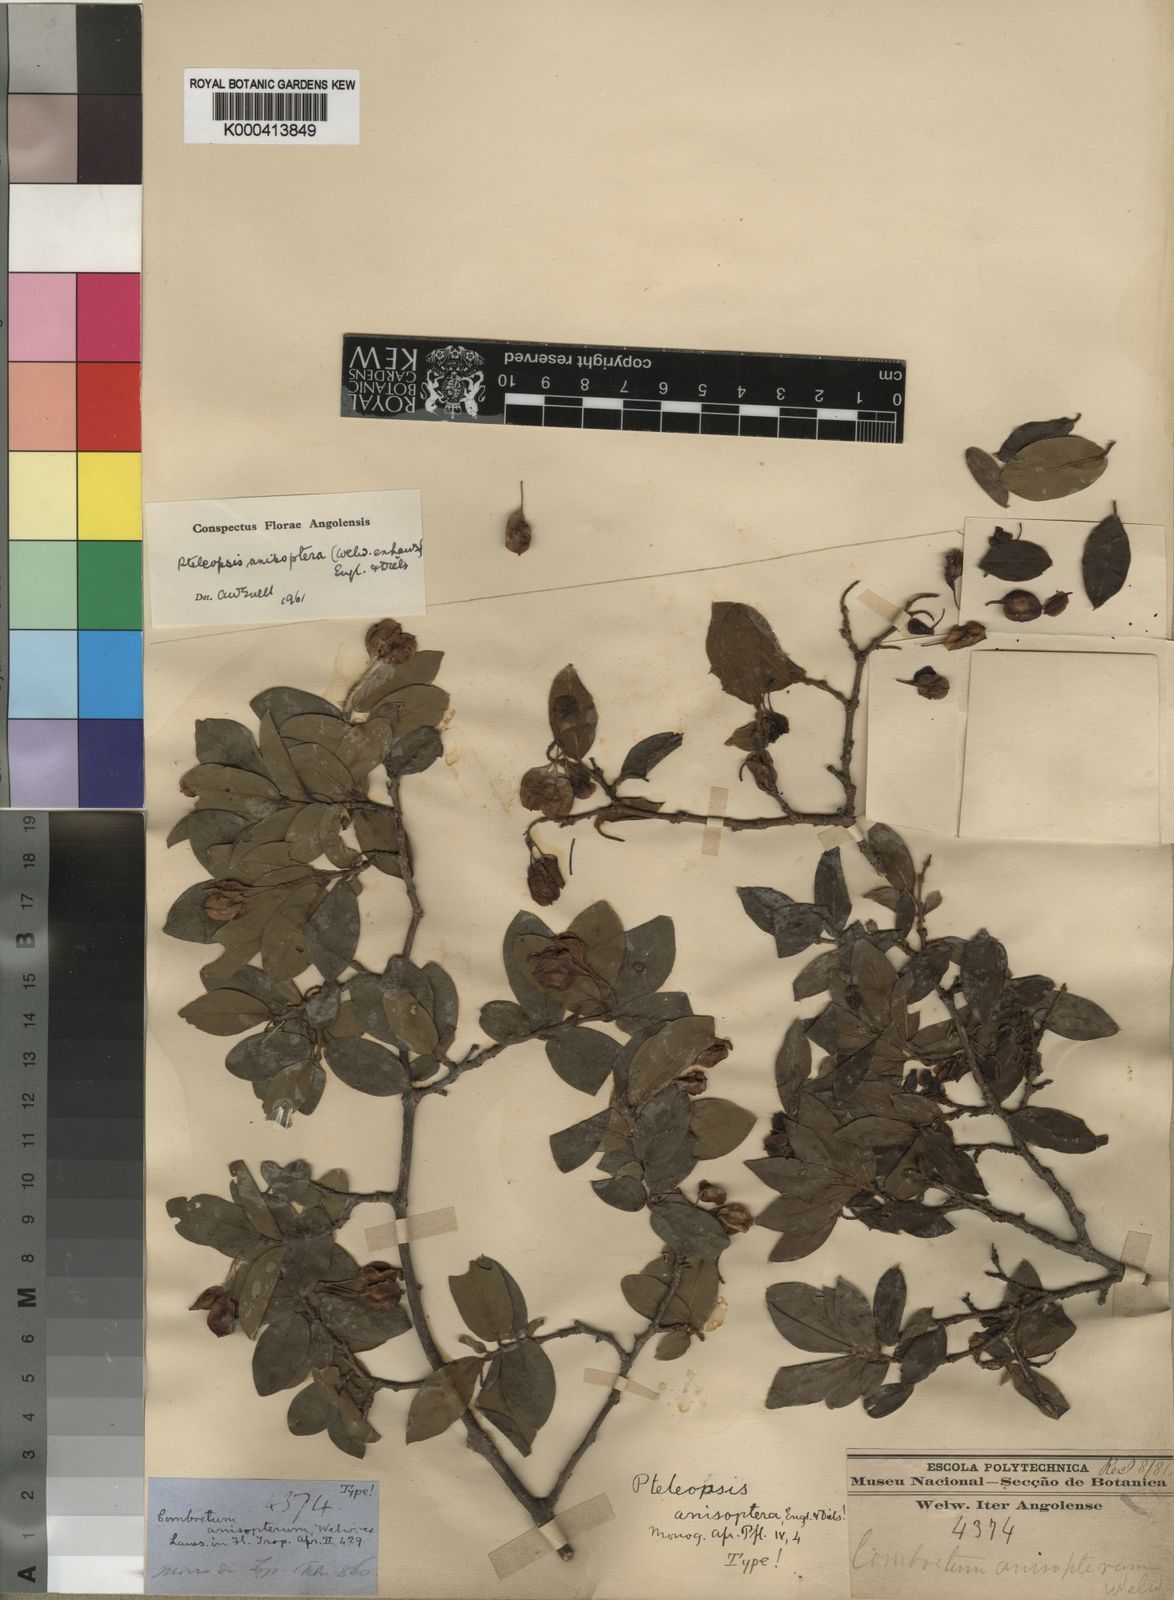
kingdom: Plantae
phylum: Tracheophyta
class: Magnoliopsida
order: Myrtales
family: Combretaceae
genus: Terminalia
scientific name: Terminalia anisoptera
